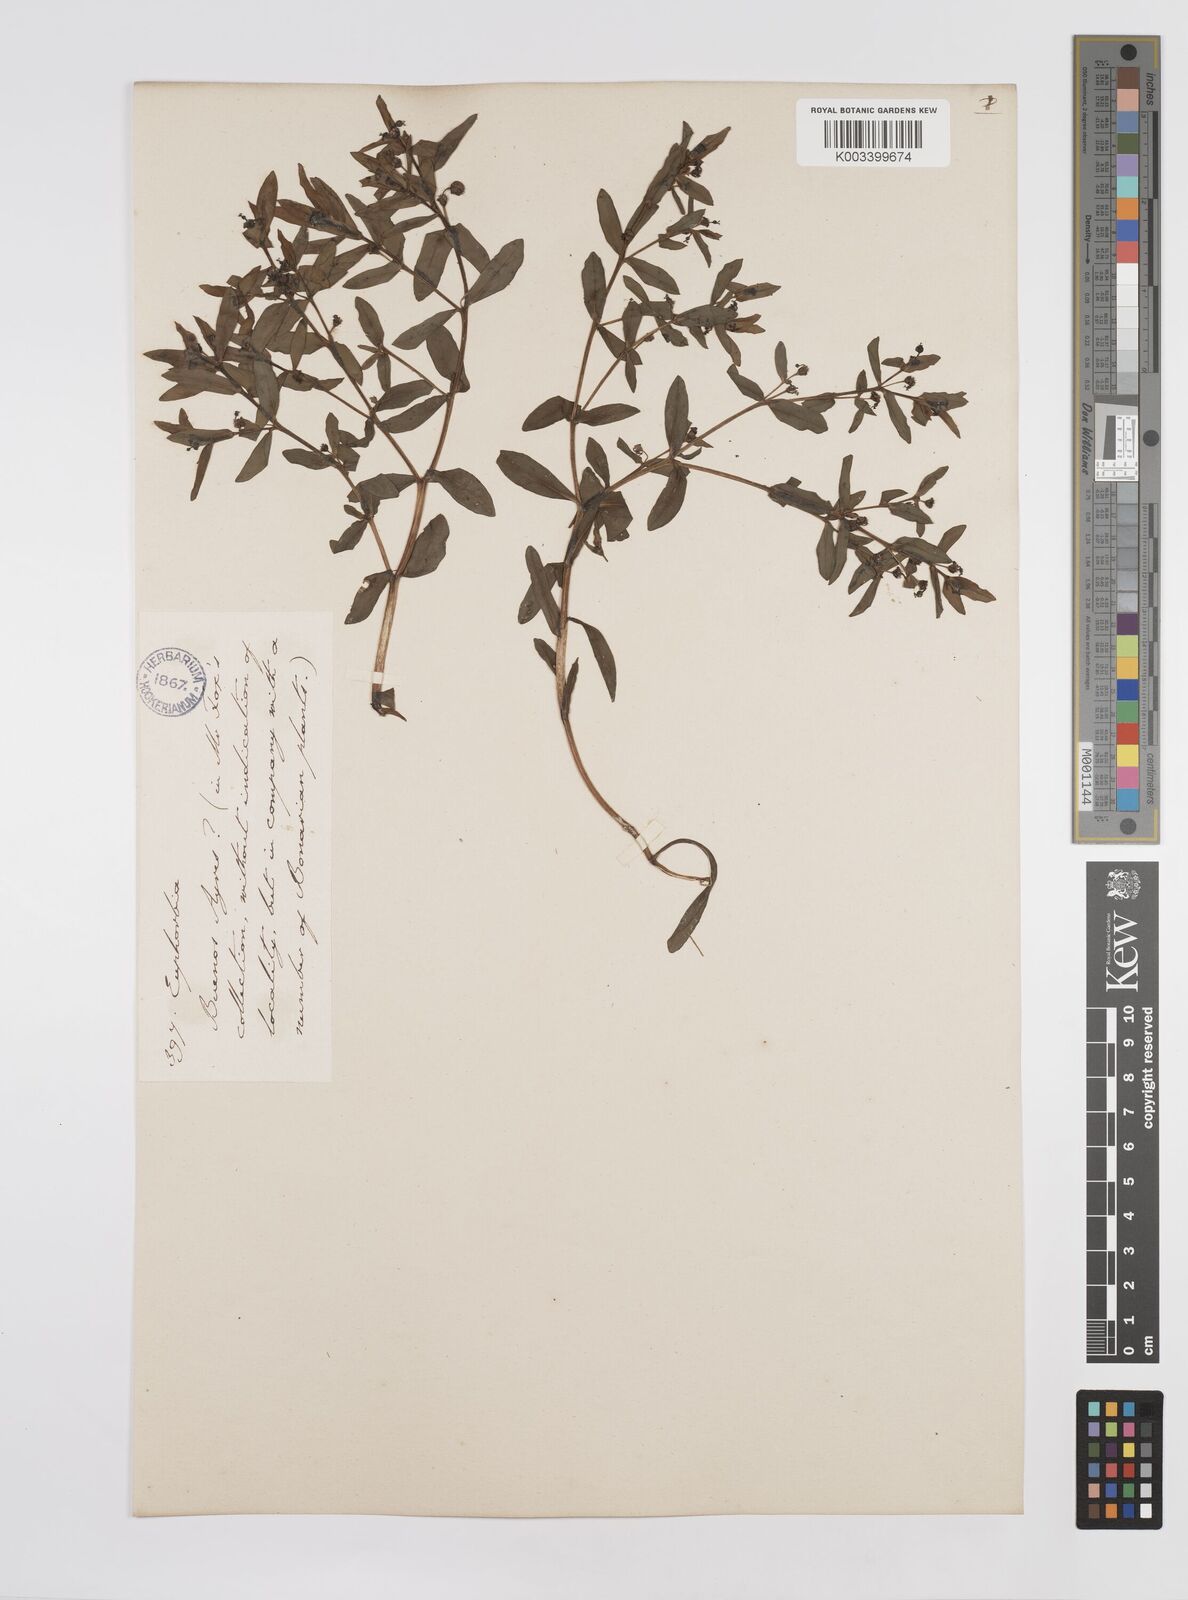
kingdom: Plantae
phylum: Tracheophyta
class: Magnoliopsida
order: Malpighiales
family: Euphorbiaceae
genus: Euphorbia
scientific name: Euphorbia elodes
